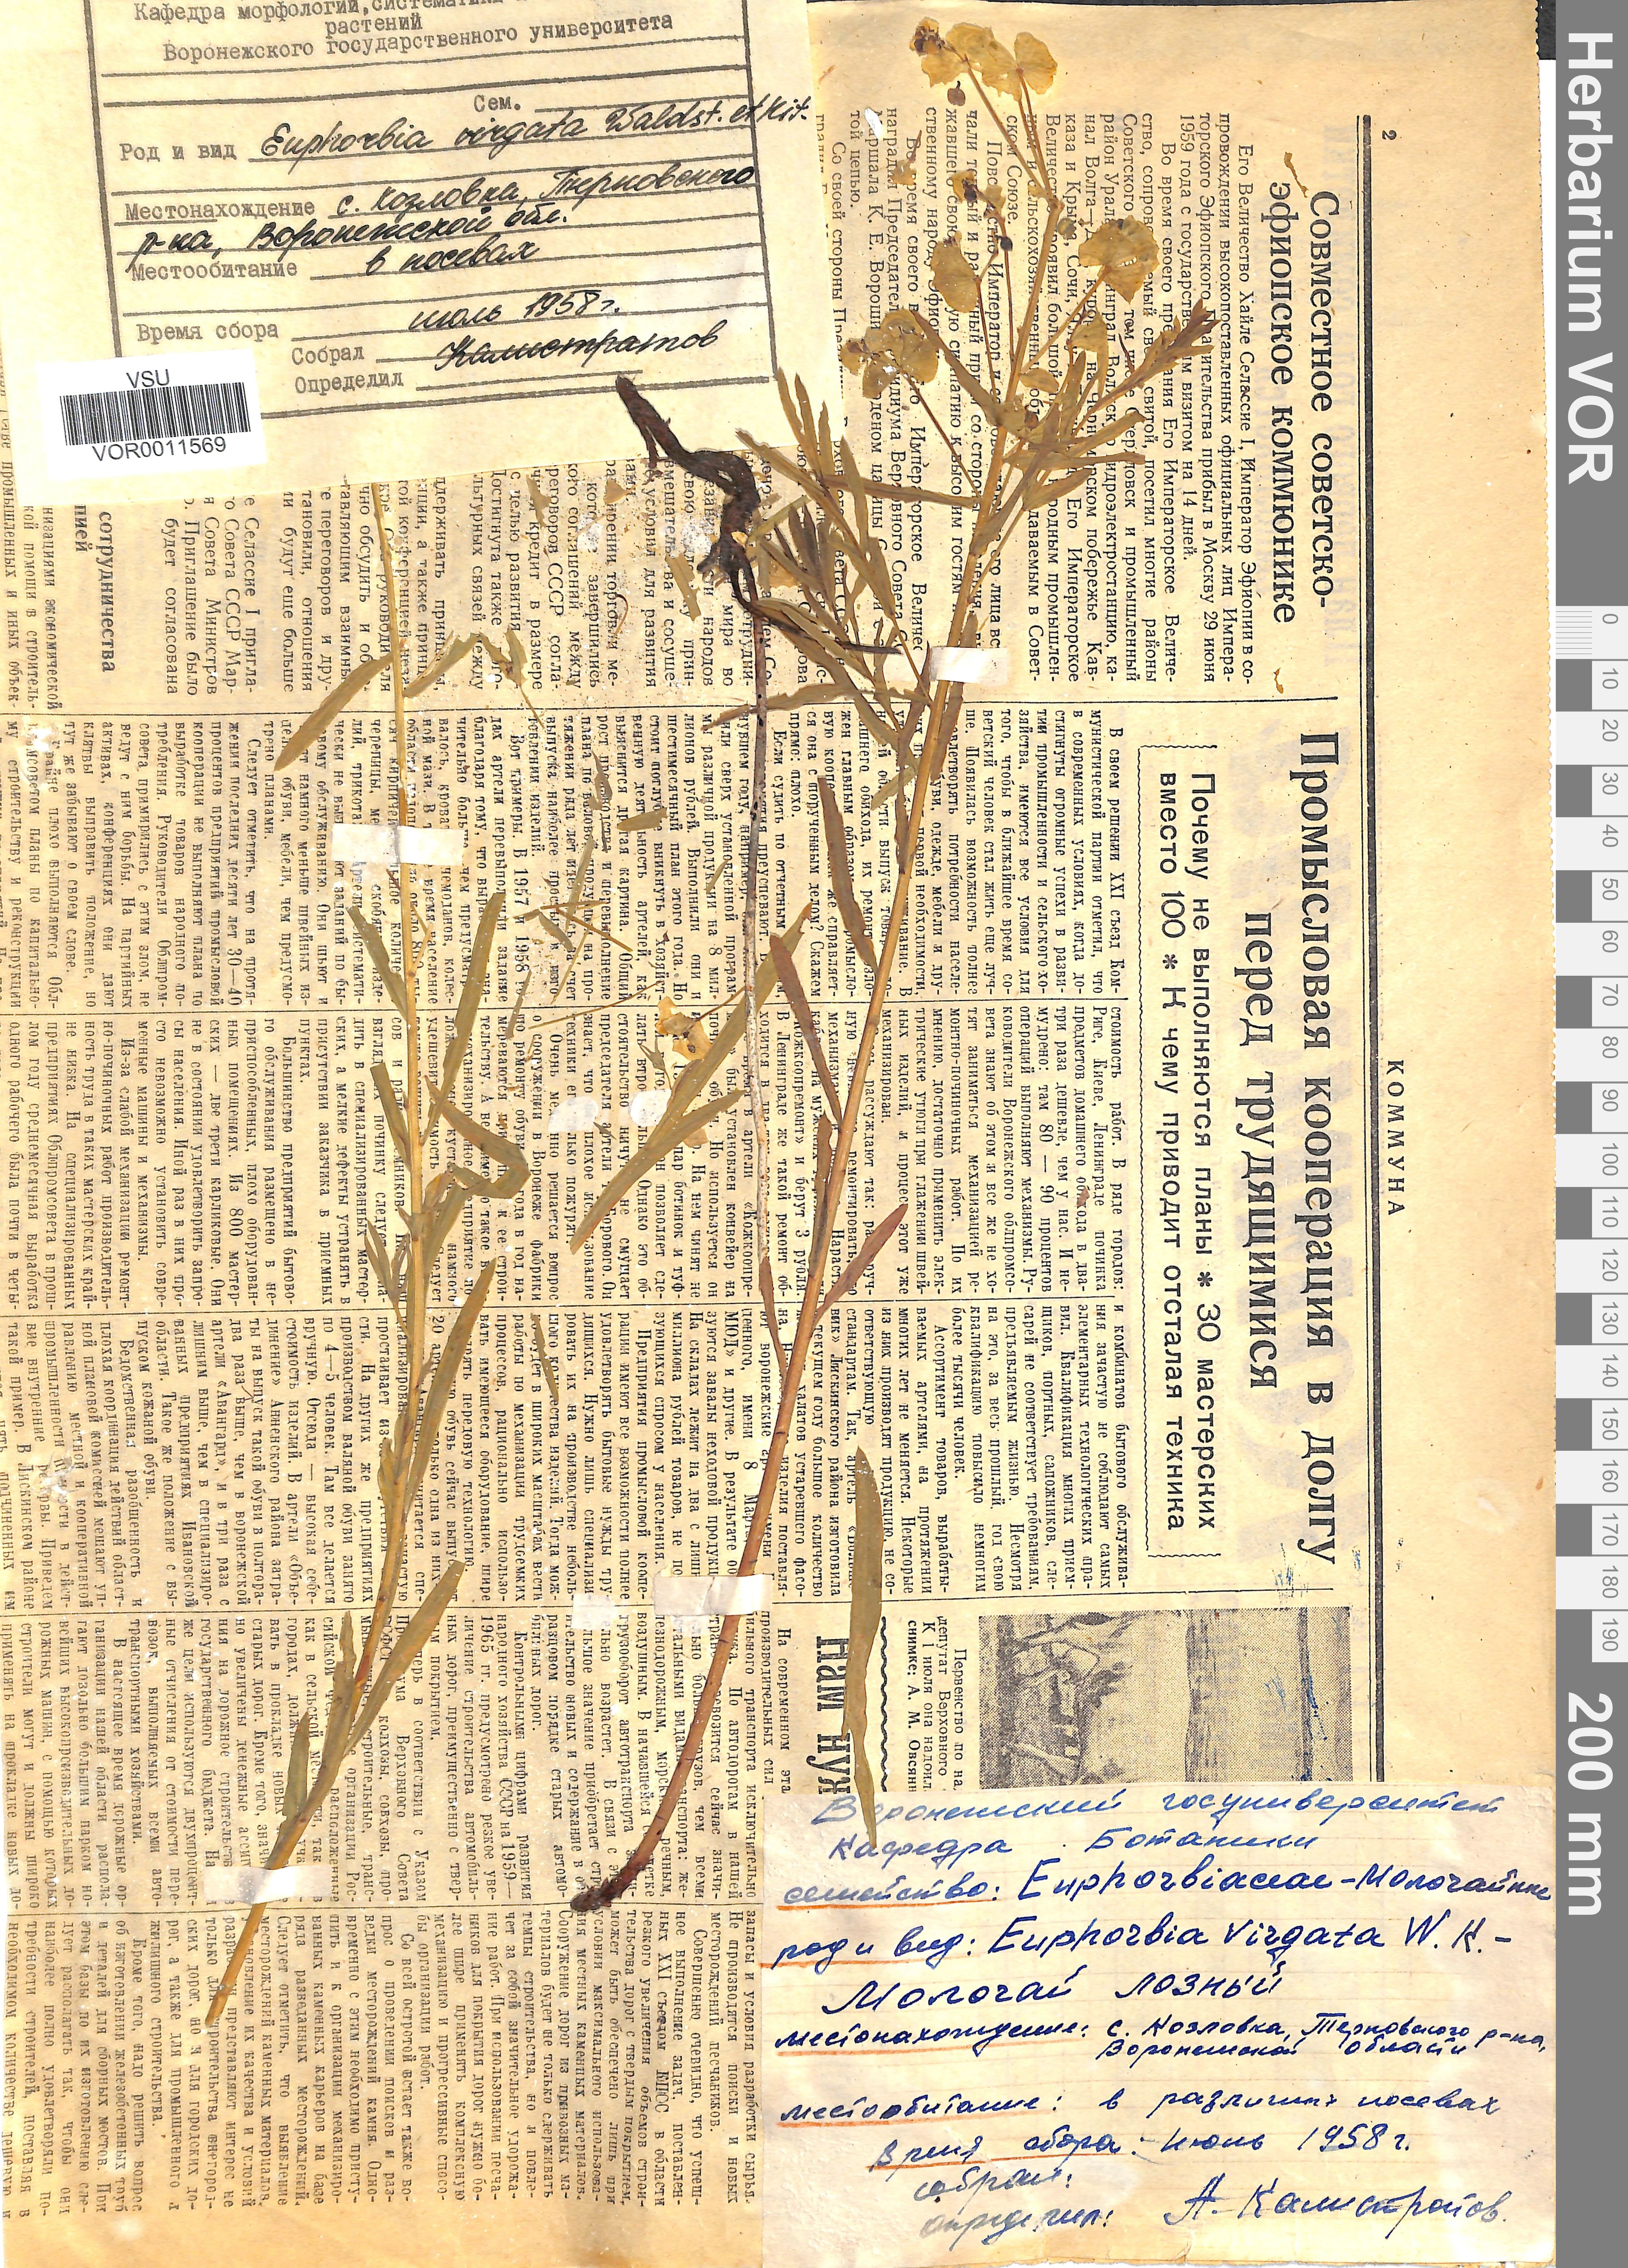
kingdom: Plantae
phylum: Tracheophyta
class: Magnoliopsida
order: Malpighiales
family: Euphorbiaceae
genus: Euphorbia
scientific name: Euphorbia virgata
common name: Leafy spurge
